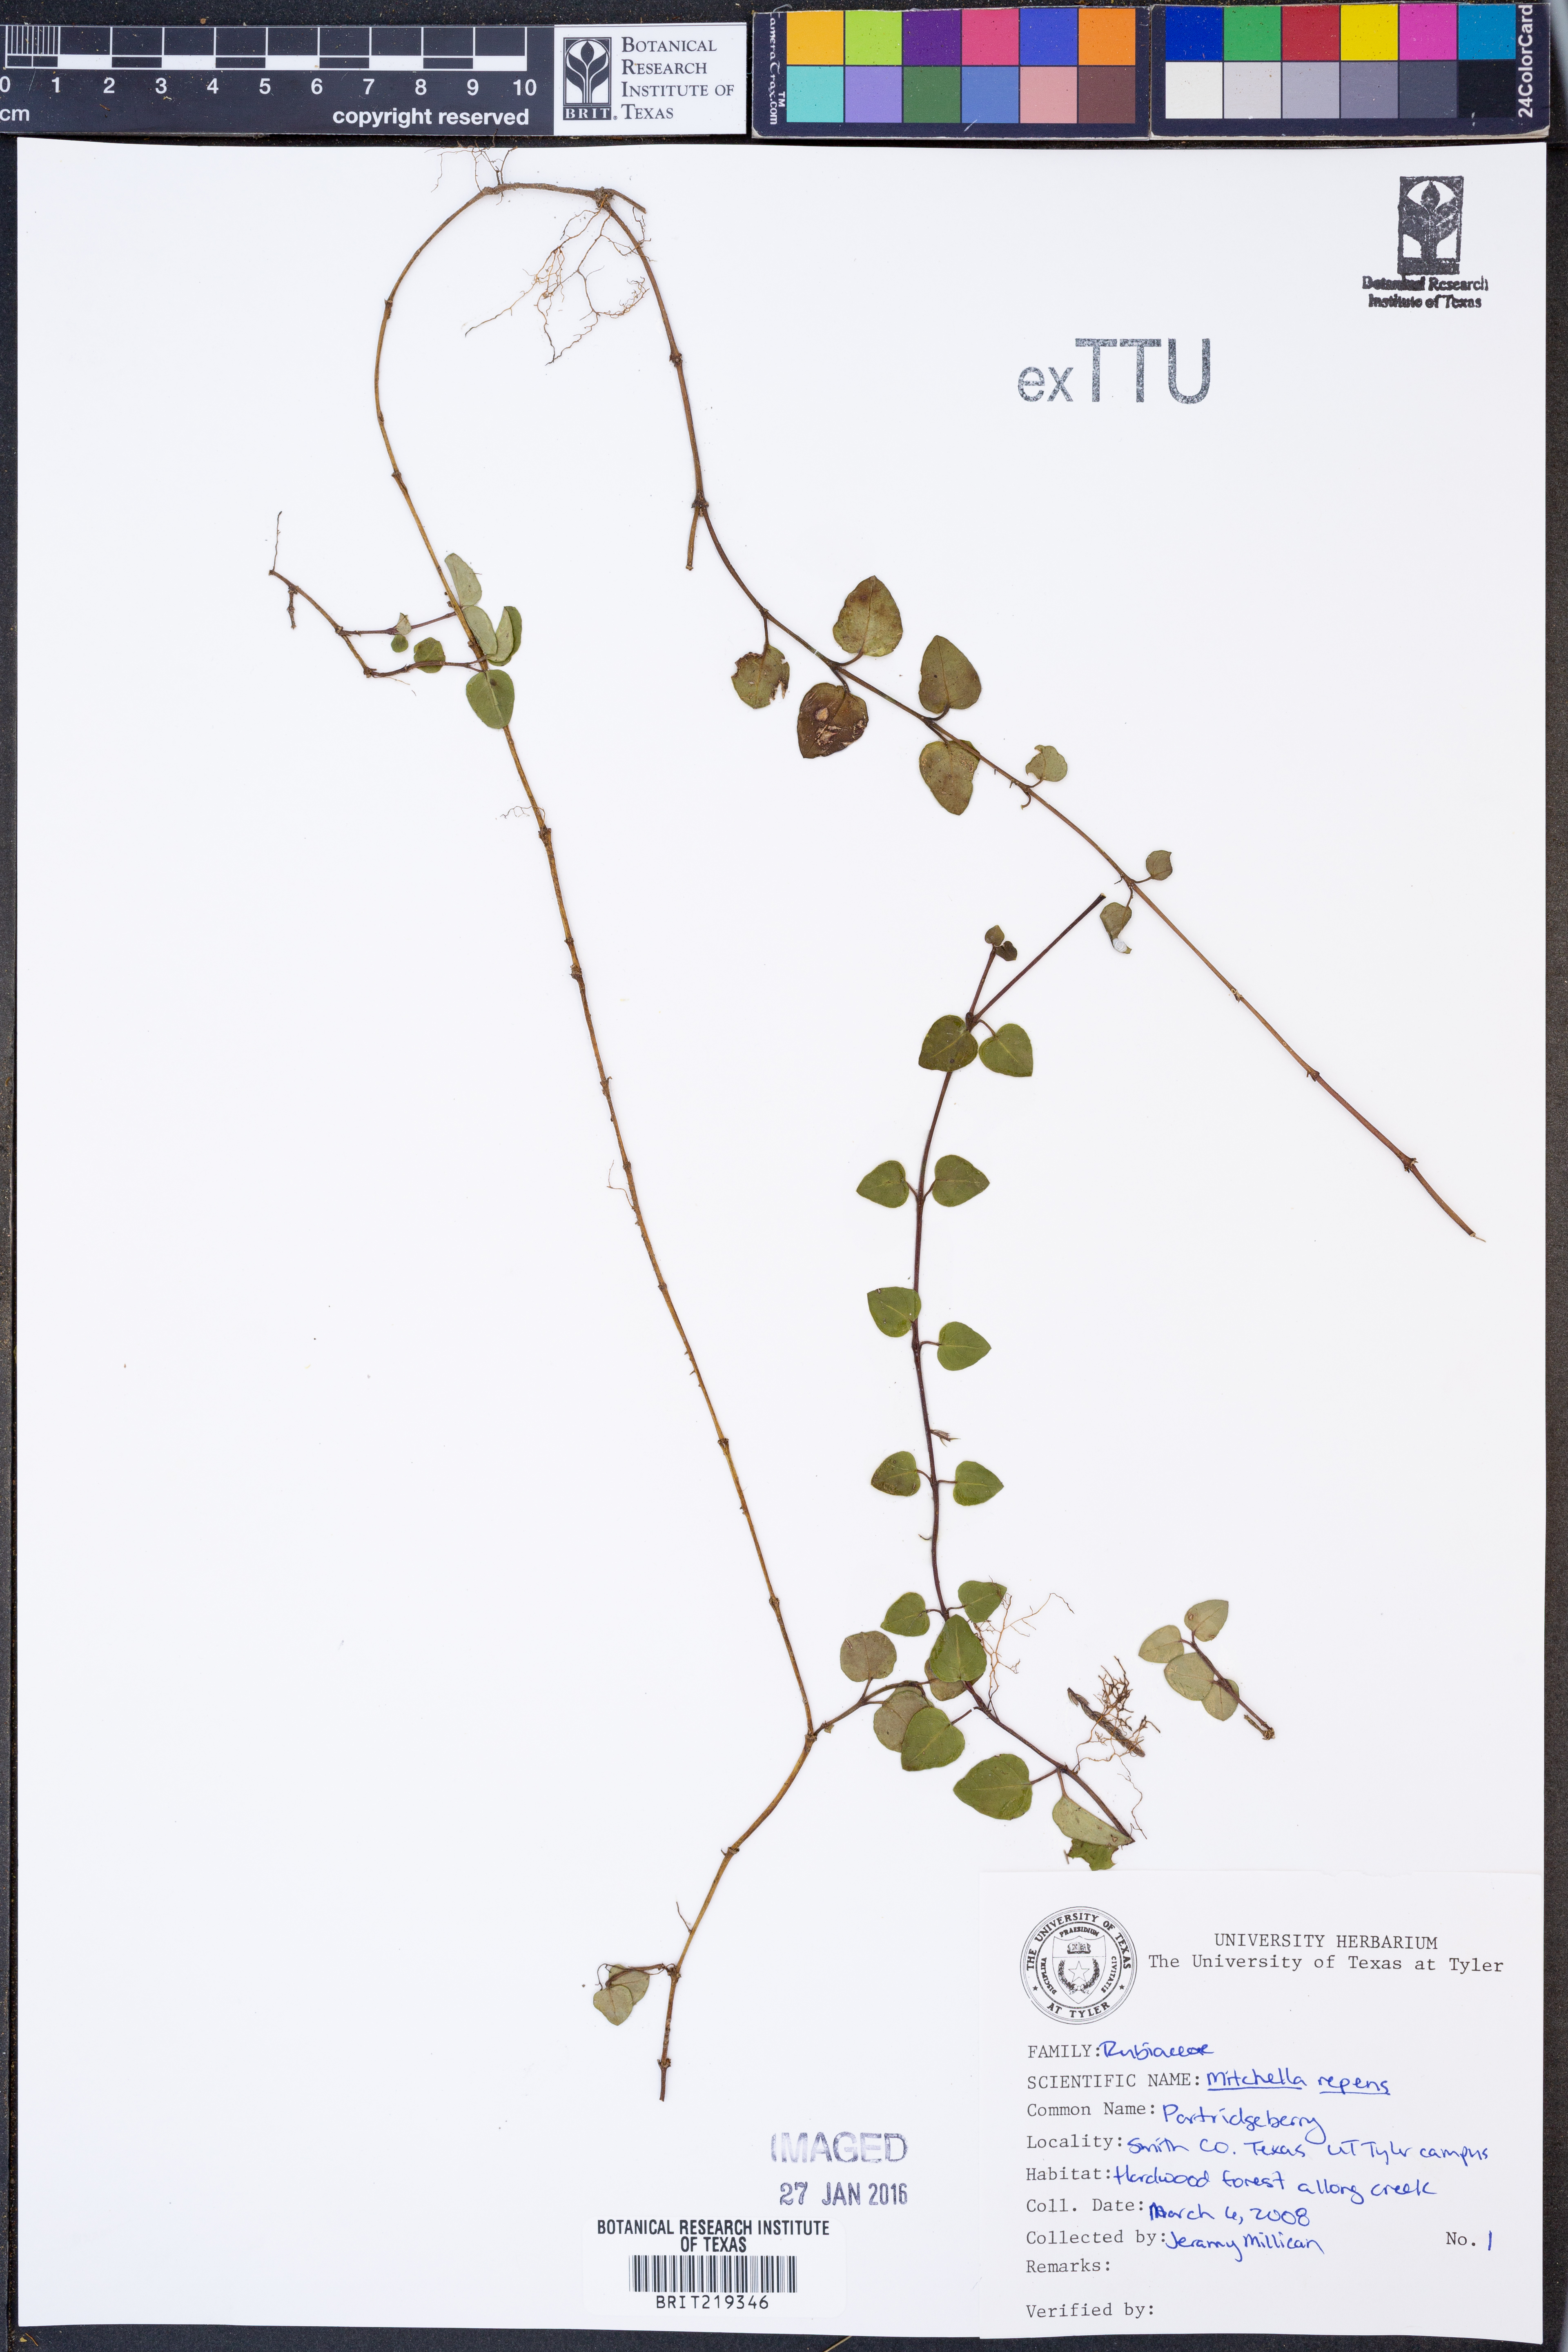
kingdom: Plantae
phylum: Tracheophyta
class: Magnoliopsida
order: Gentianales
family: Rubiaceae
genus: Mitchella
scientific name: Mitchella repens
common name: Partridge-berry
